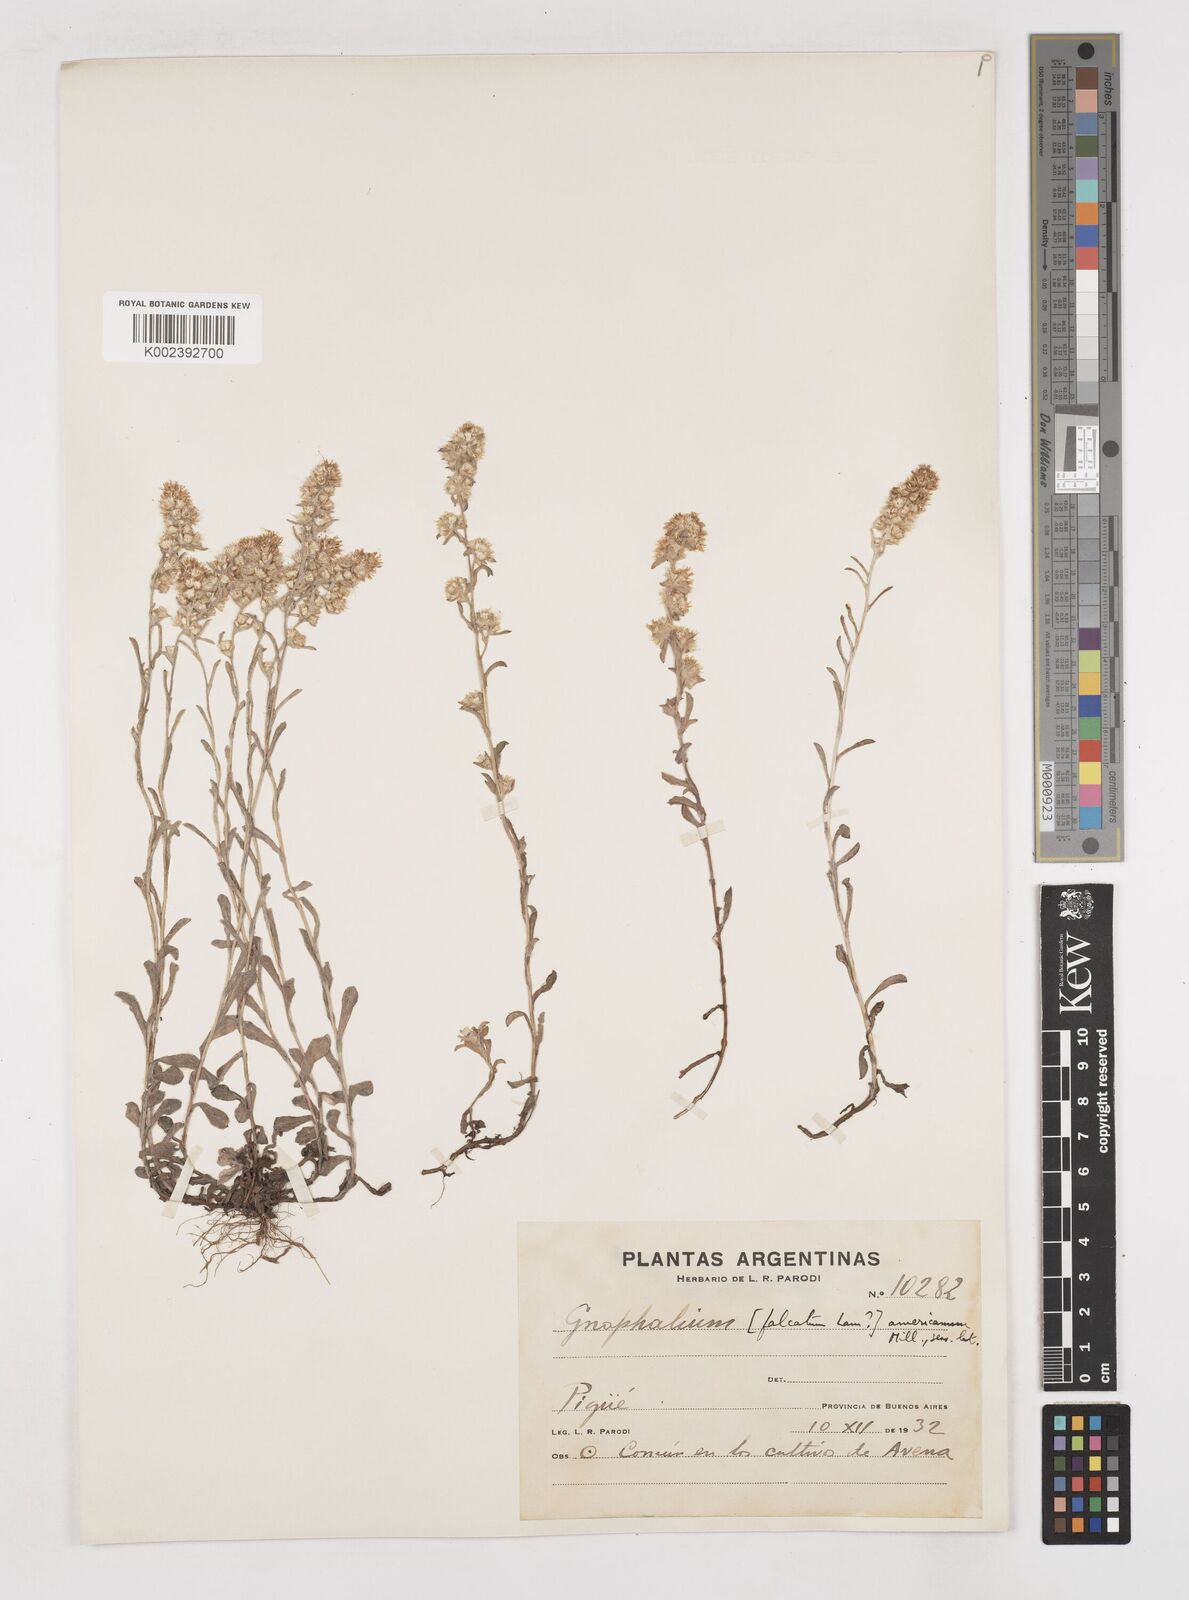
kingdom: Plantae
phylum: Tracheophyta
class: Magnoliopsida
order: Asterales
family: Asteraceae
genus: Anaphalis
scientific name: Anaphalis margaritacea
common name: Pearly everlasting
